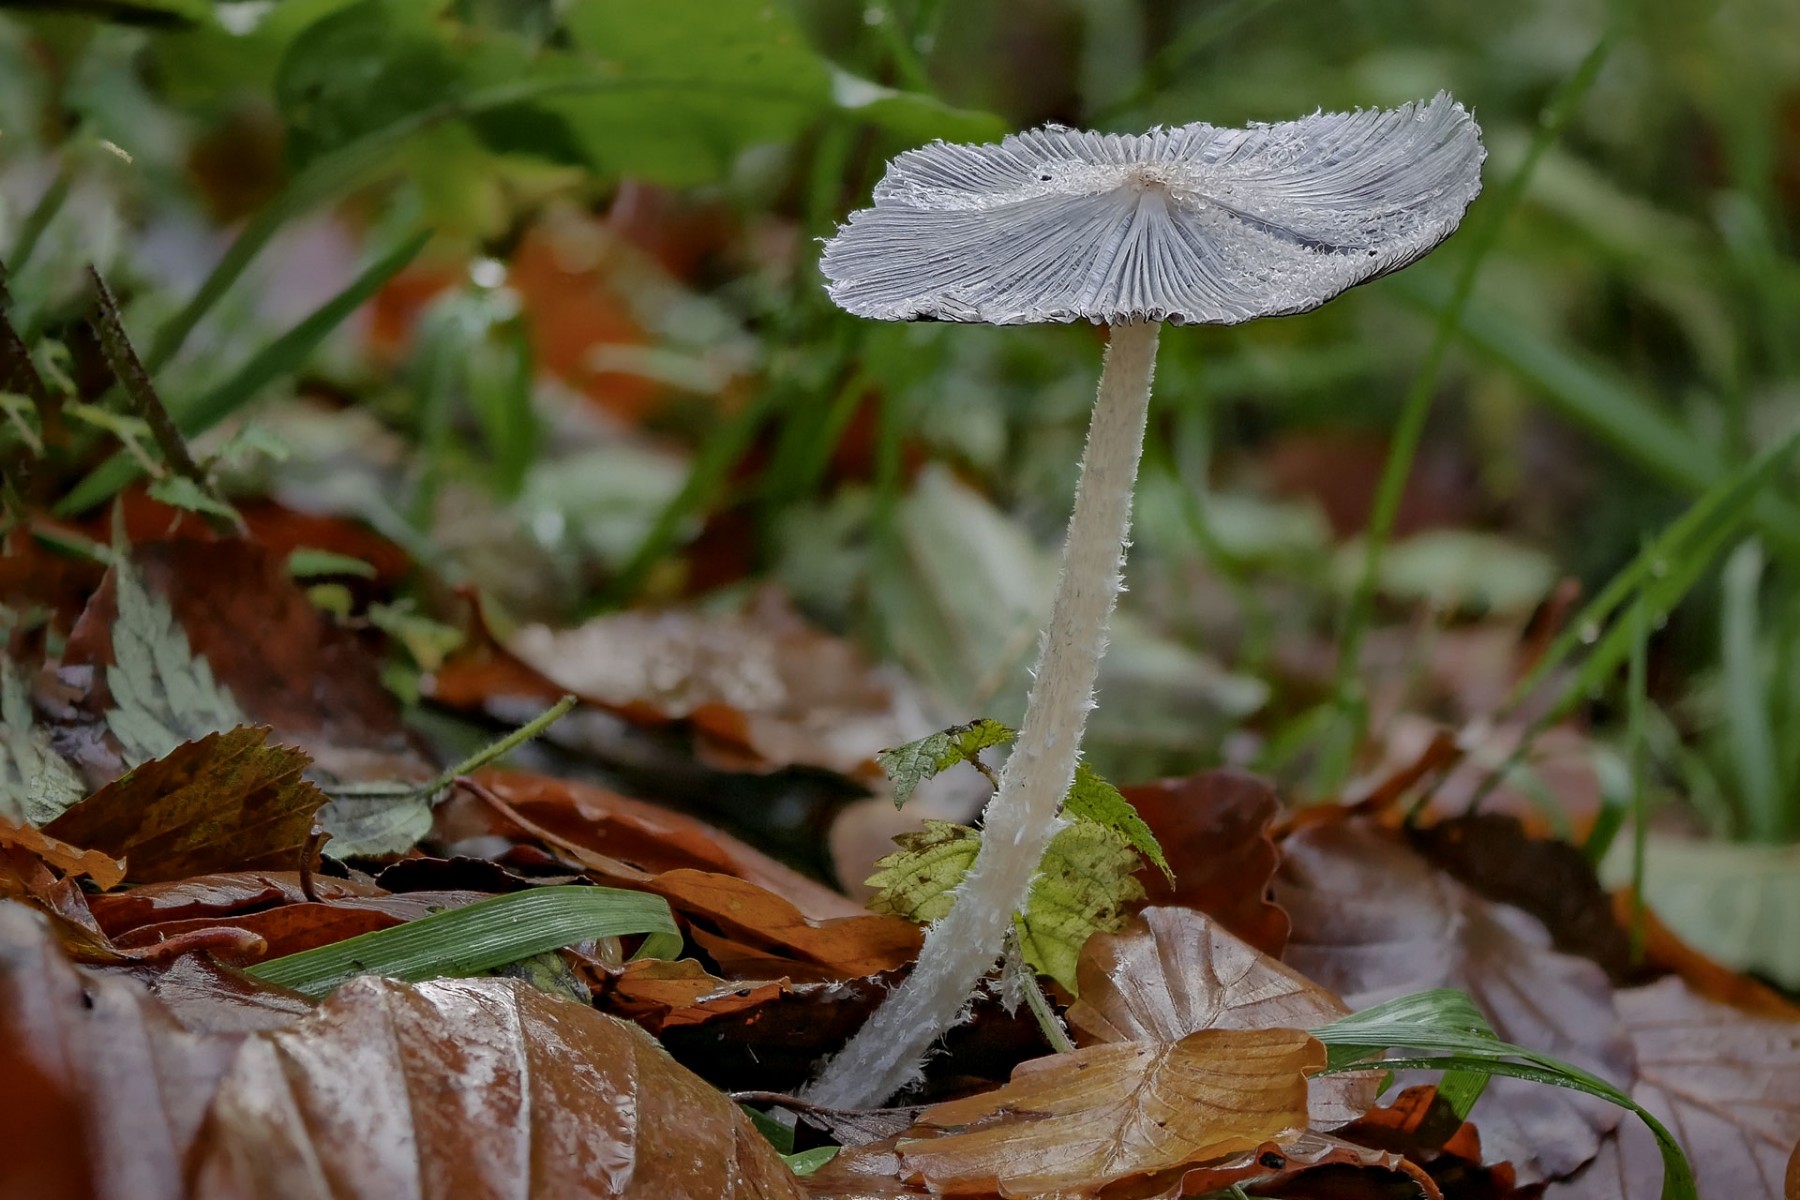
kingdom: Fungi
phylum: Basidiomycota
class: Agaricomycetes
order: Agaricales
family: Psathyrellaceae
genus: Coprinopsis
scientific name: Coprinopsis lagopus
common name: dunstokket blækhat
